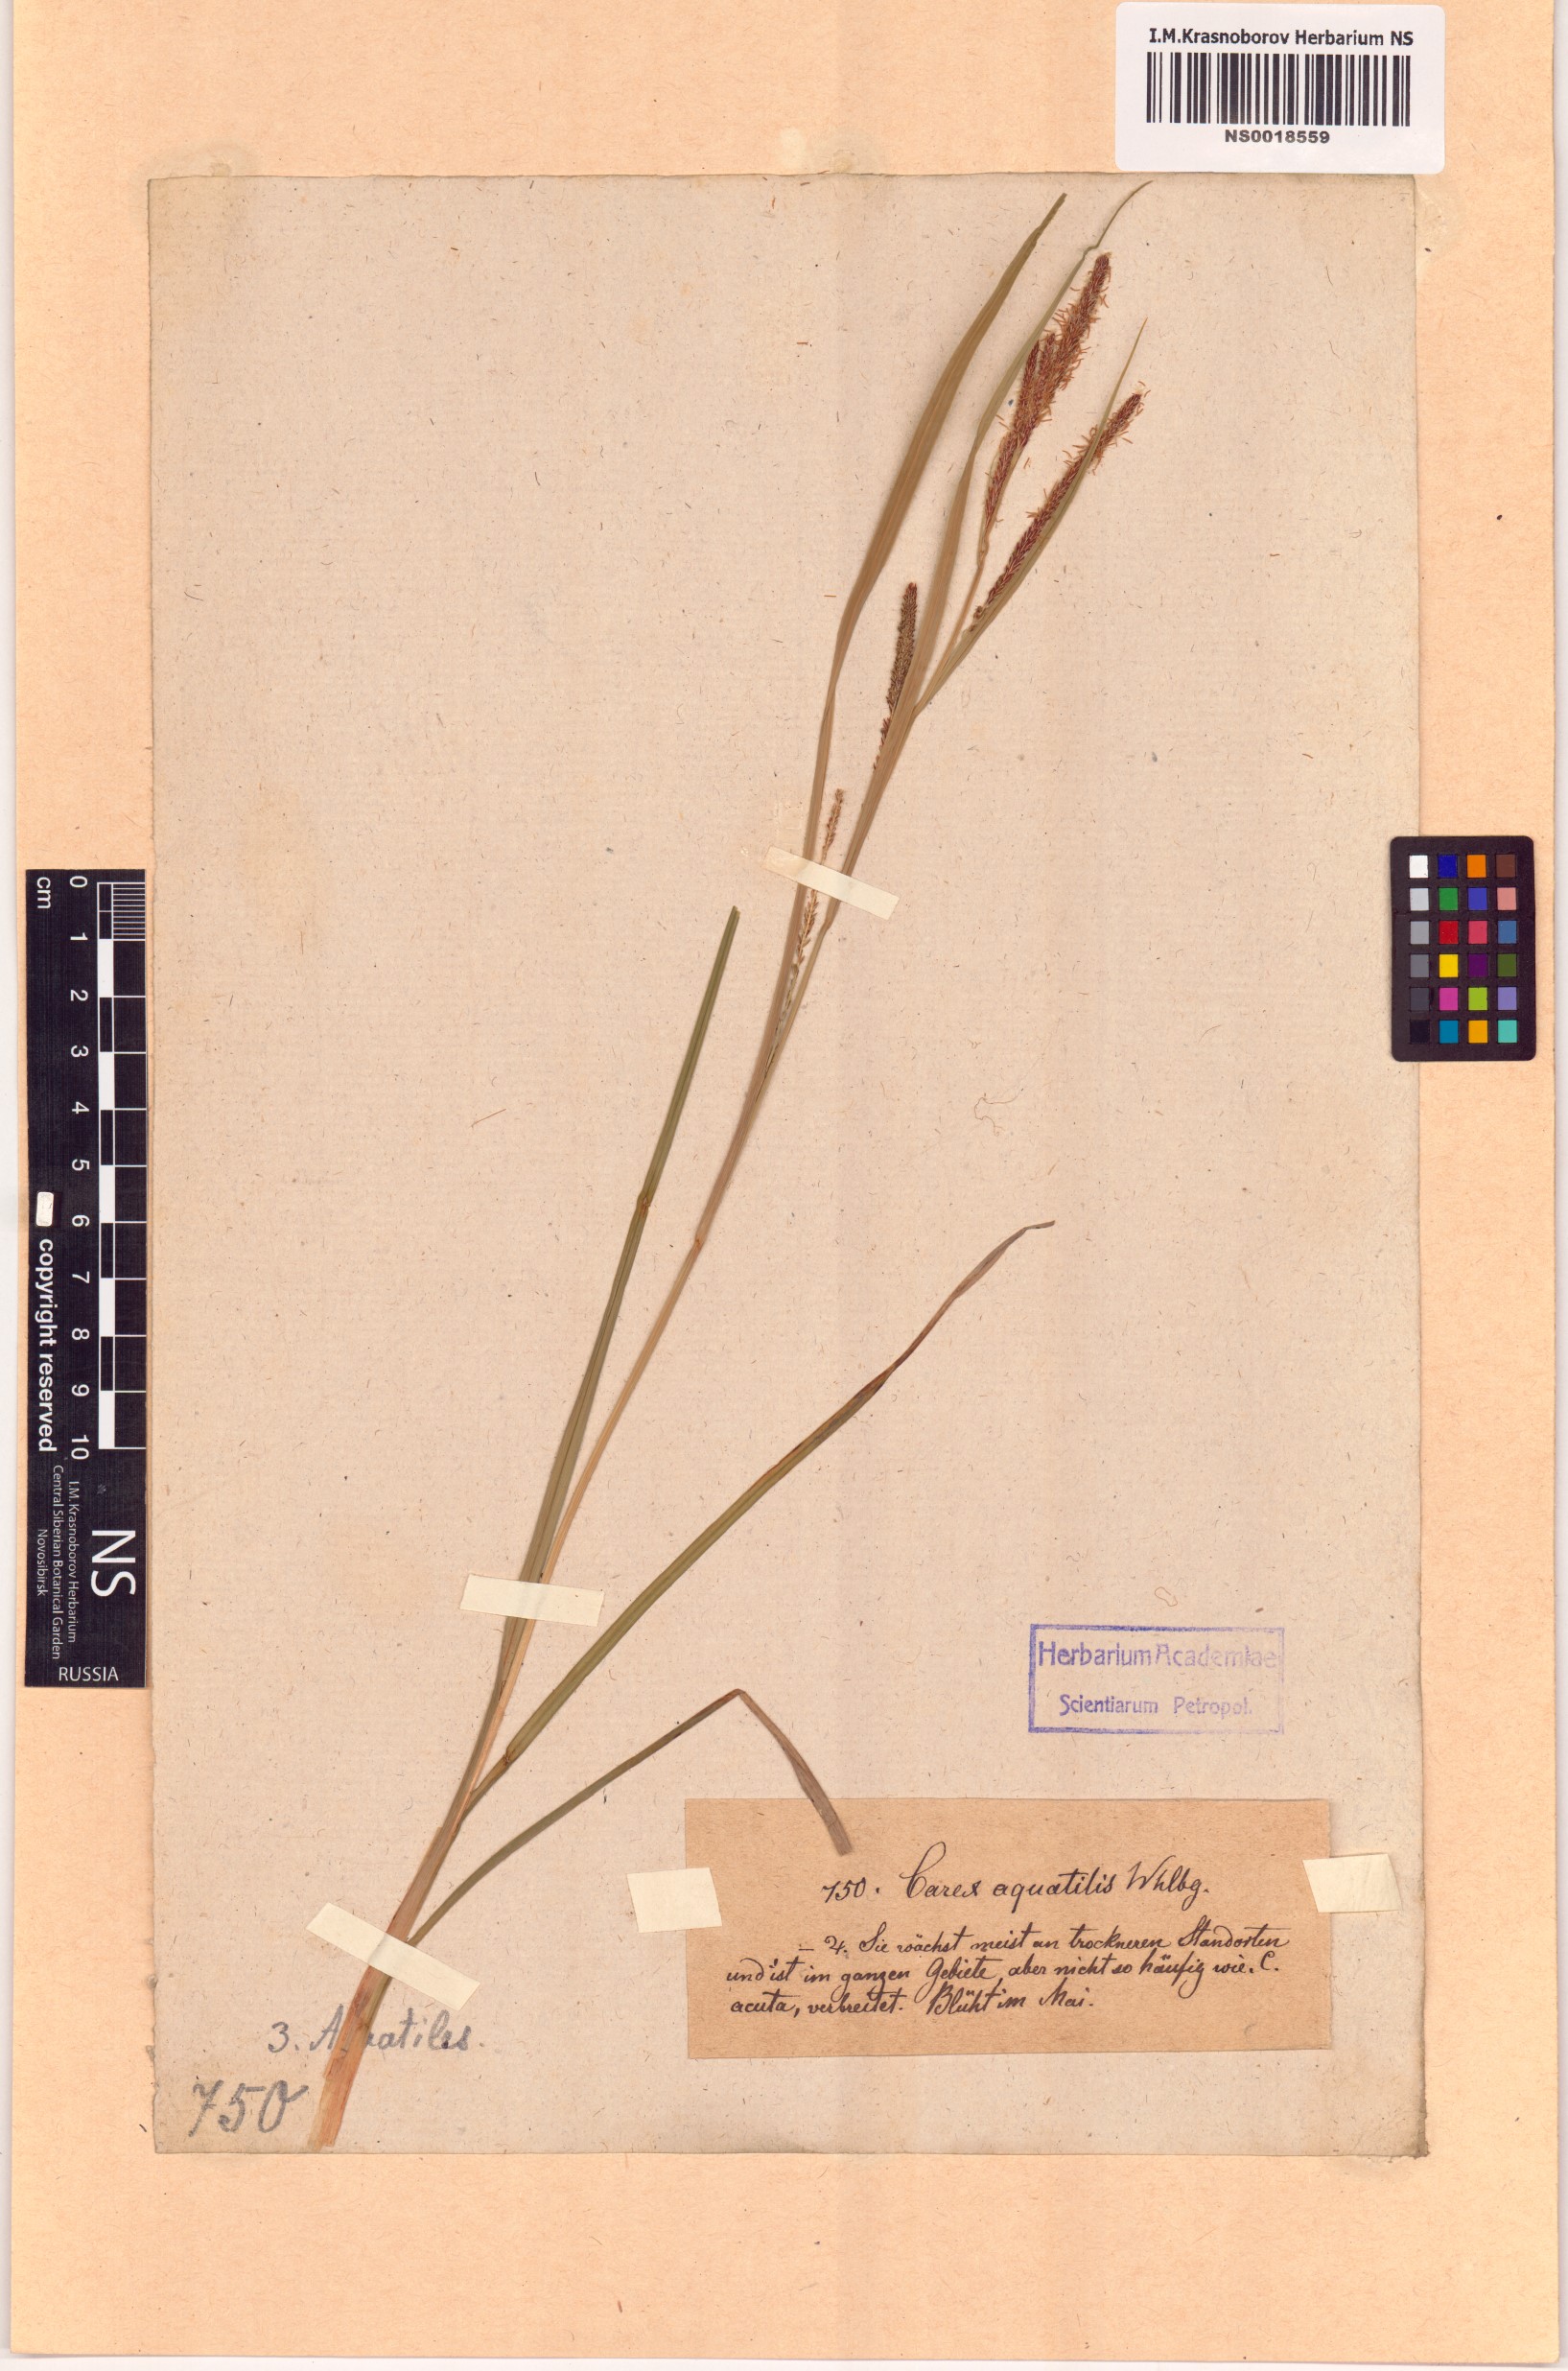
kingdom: Plantae
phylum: Tracheophyta
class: Liliopsida
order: Poales
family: Cyperaceae
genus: Carex
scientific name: Carex aquatilis
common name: Water sedge
